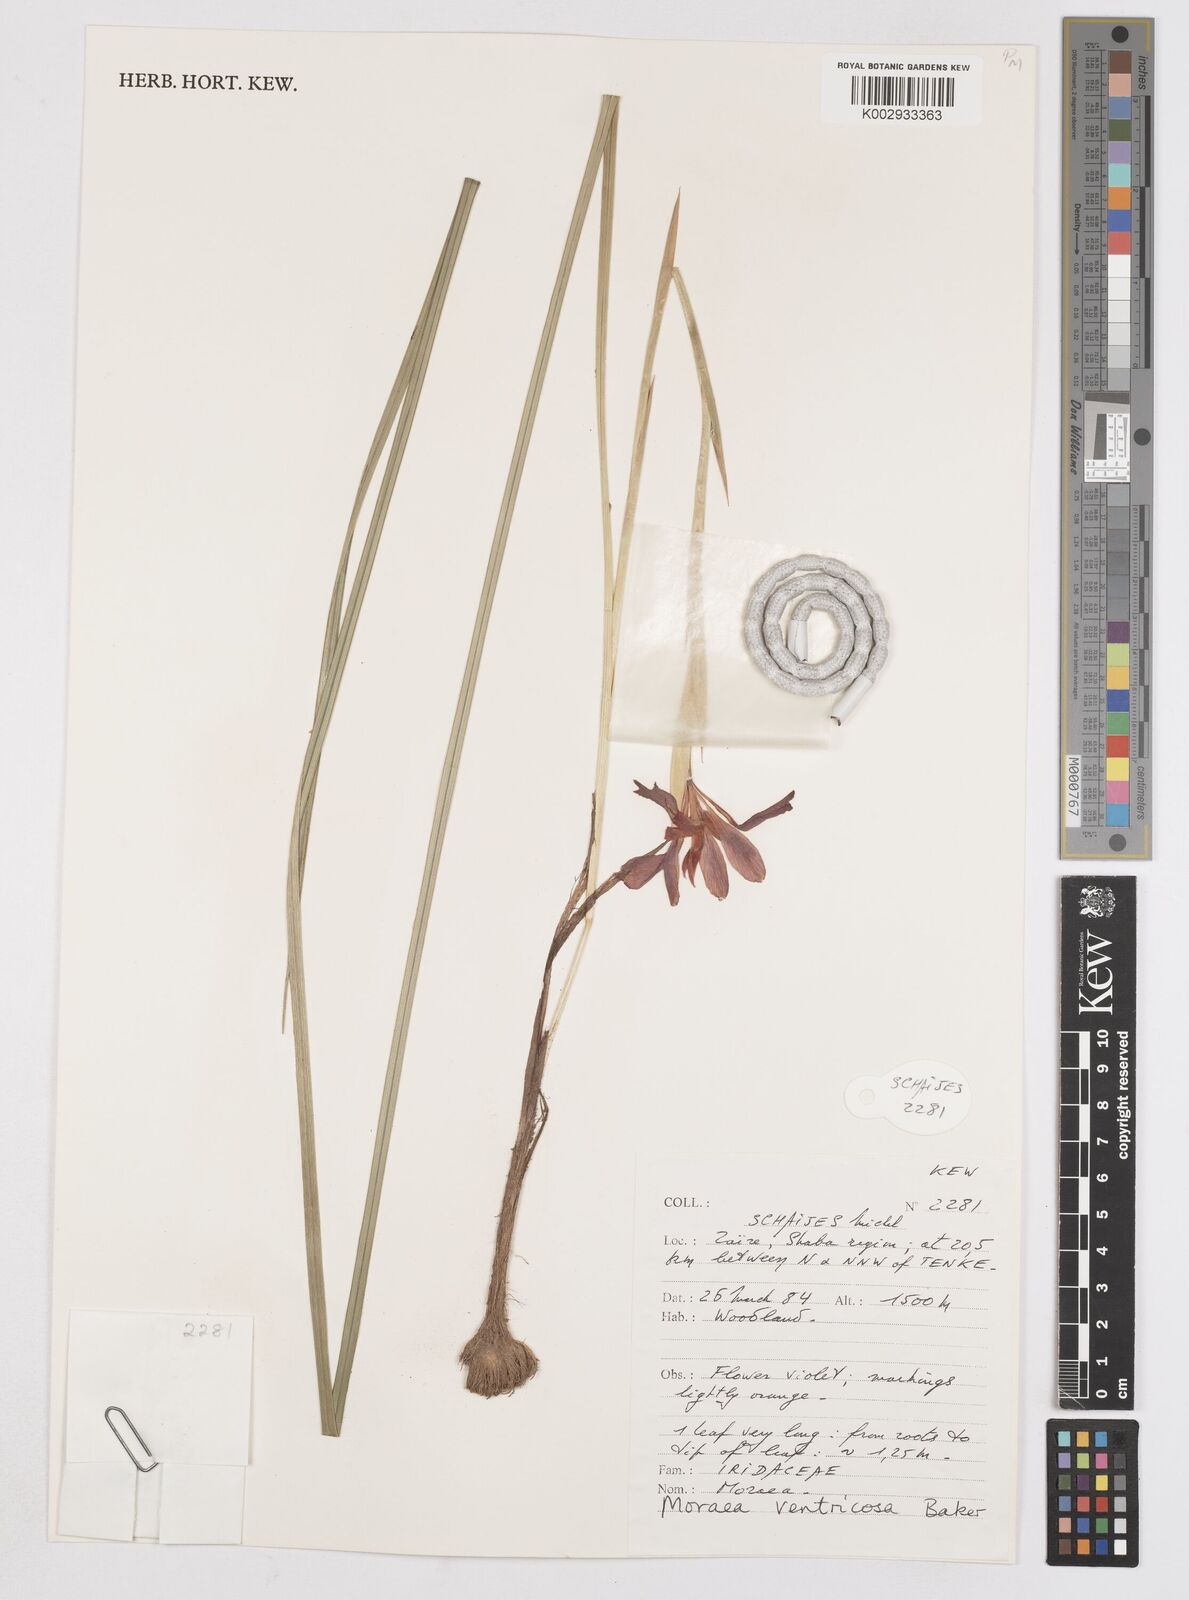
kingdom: Plantae
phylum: Tracheophyta
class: Liliopsida
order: Asparagales
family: Iridaceae
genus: Moraea
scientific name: Moraea ventricosa
